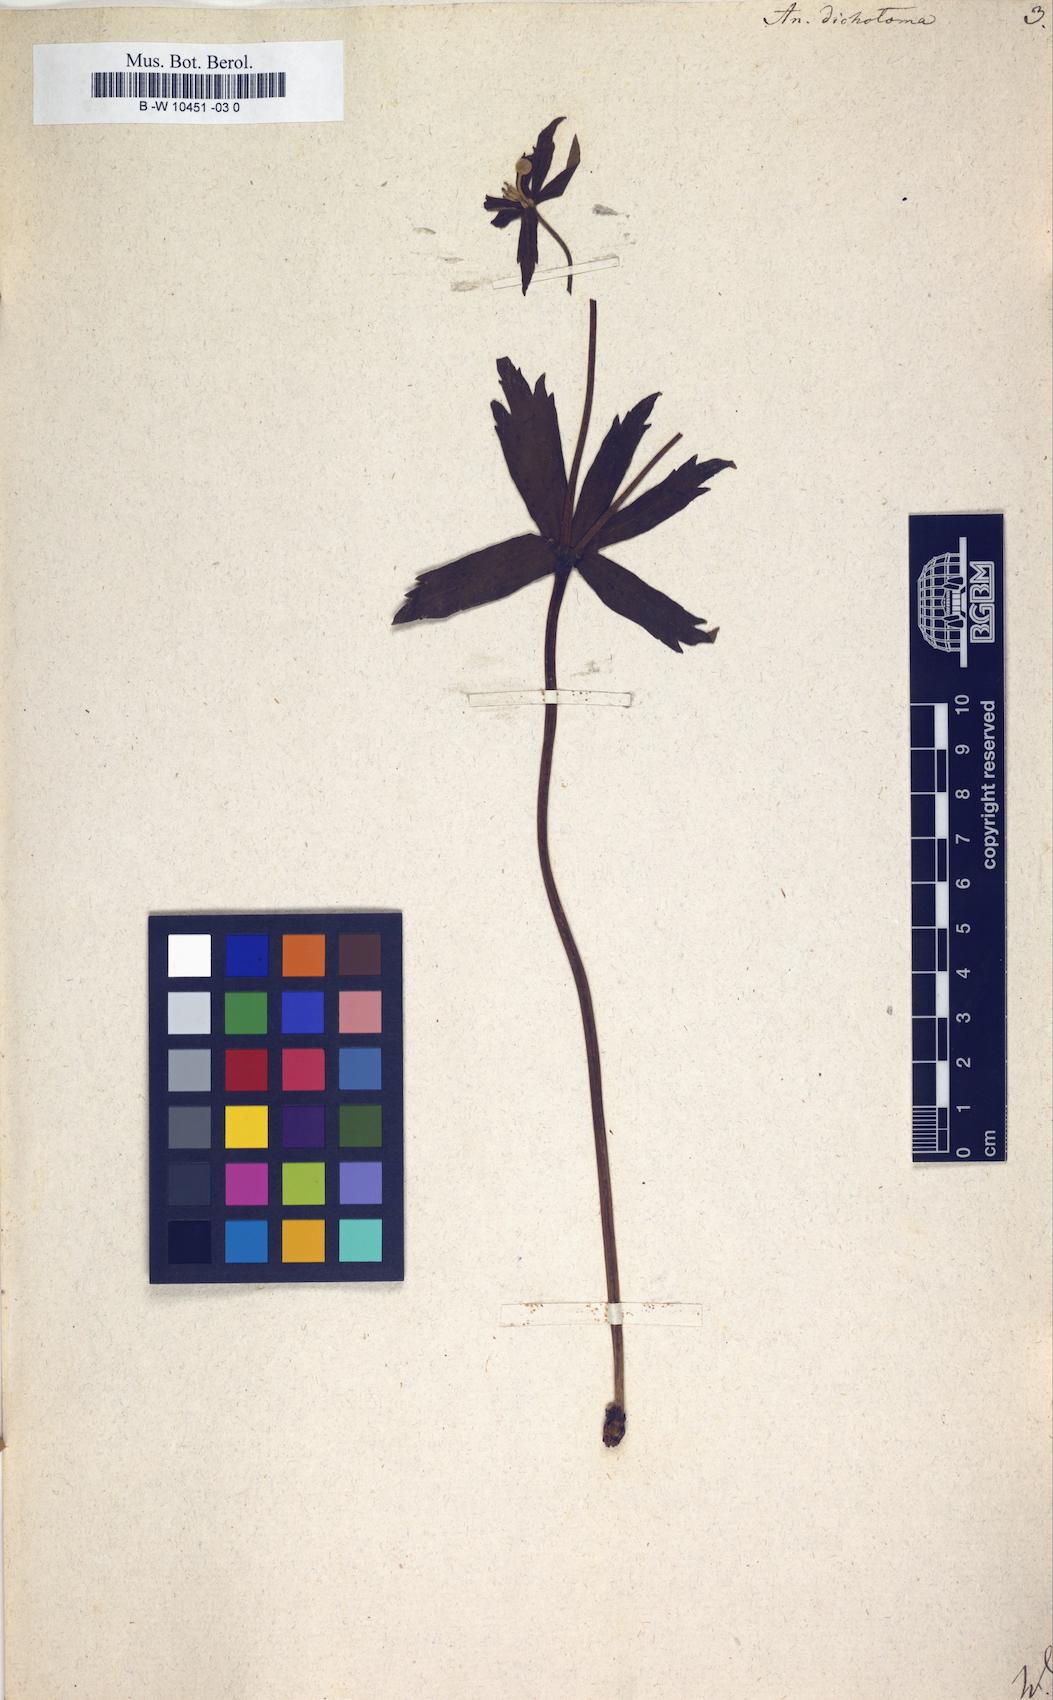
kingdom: Plantae
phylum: Tracheophyta
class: Magnoliopsida
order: Ranunculales
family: Ranunculaceae
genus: Anemonastrum
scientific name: Anemonastrum dichotomum
